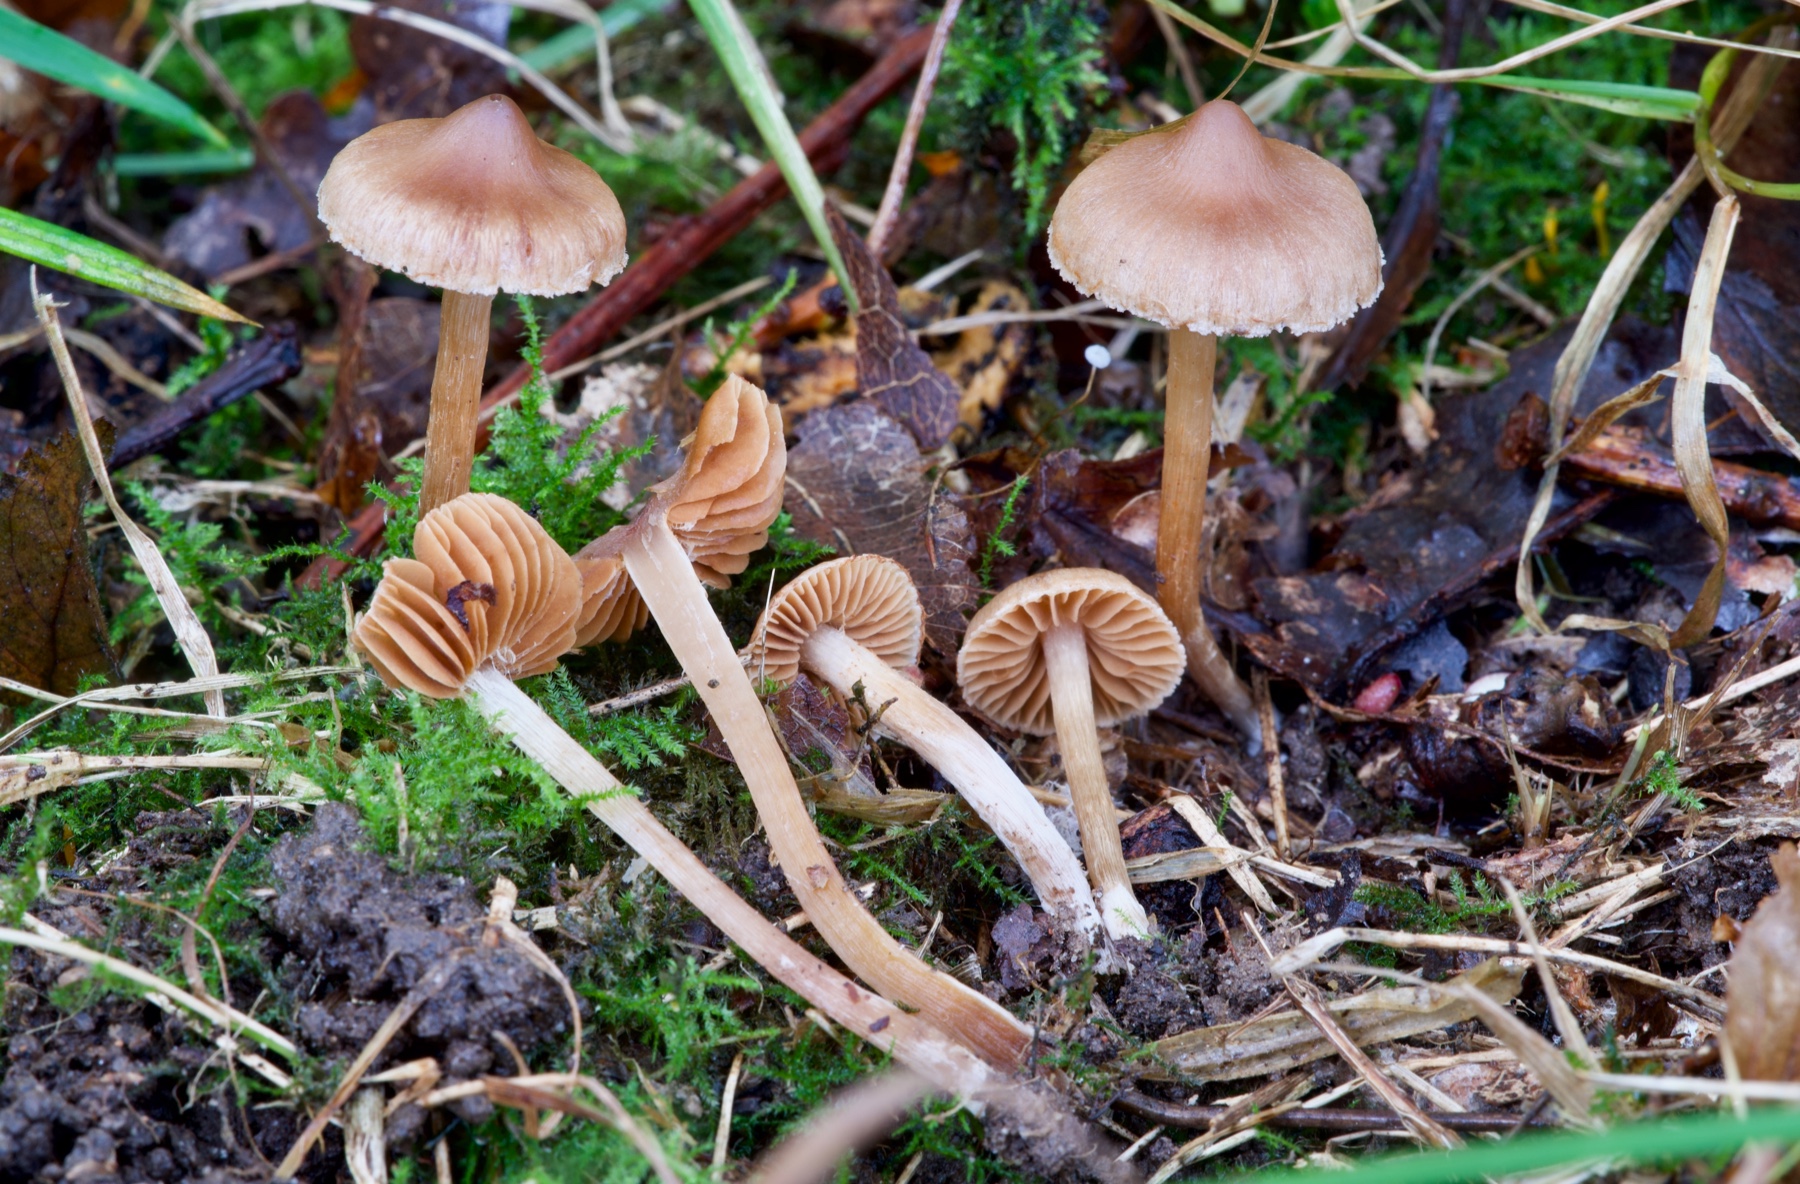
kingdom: Fungi
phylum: Basidiomycota
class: Agaricomycetes
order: Agaricales
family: Cortinariaceae
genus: Cortinarius
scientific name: Cortinarius incisior
